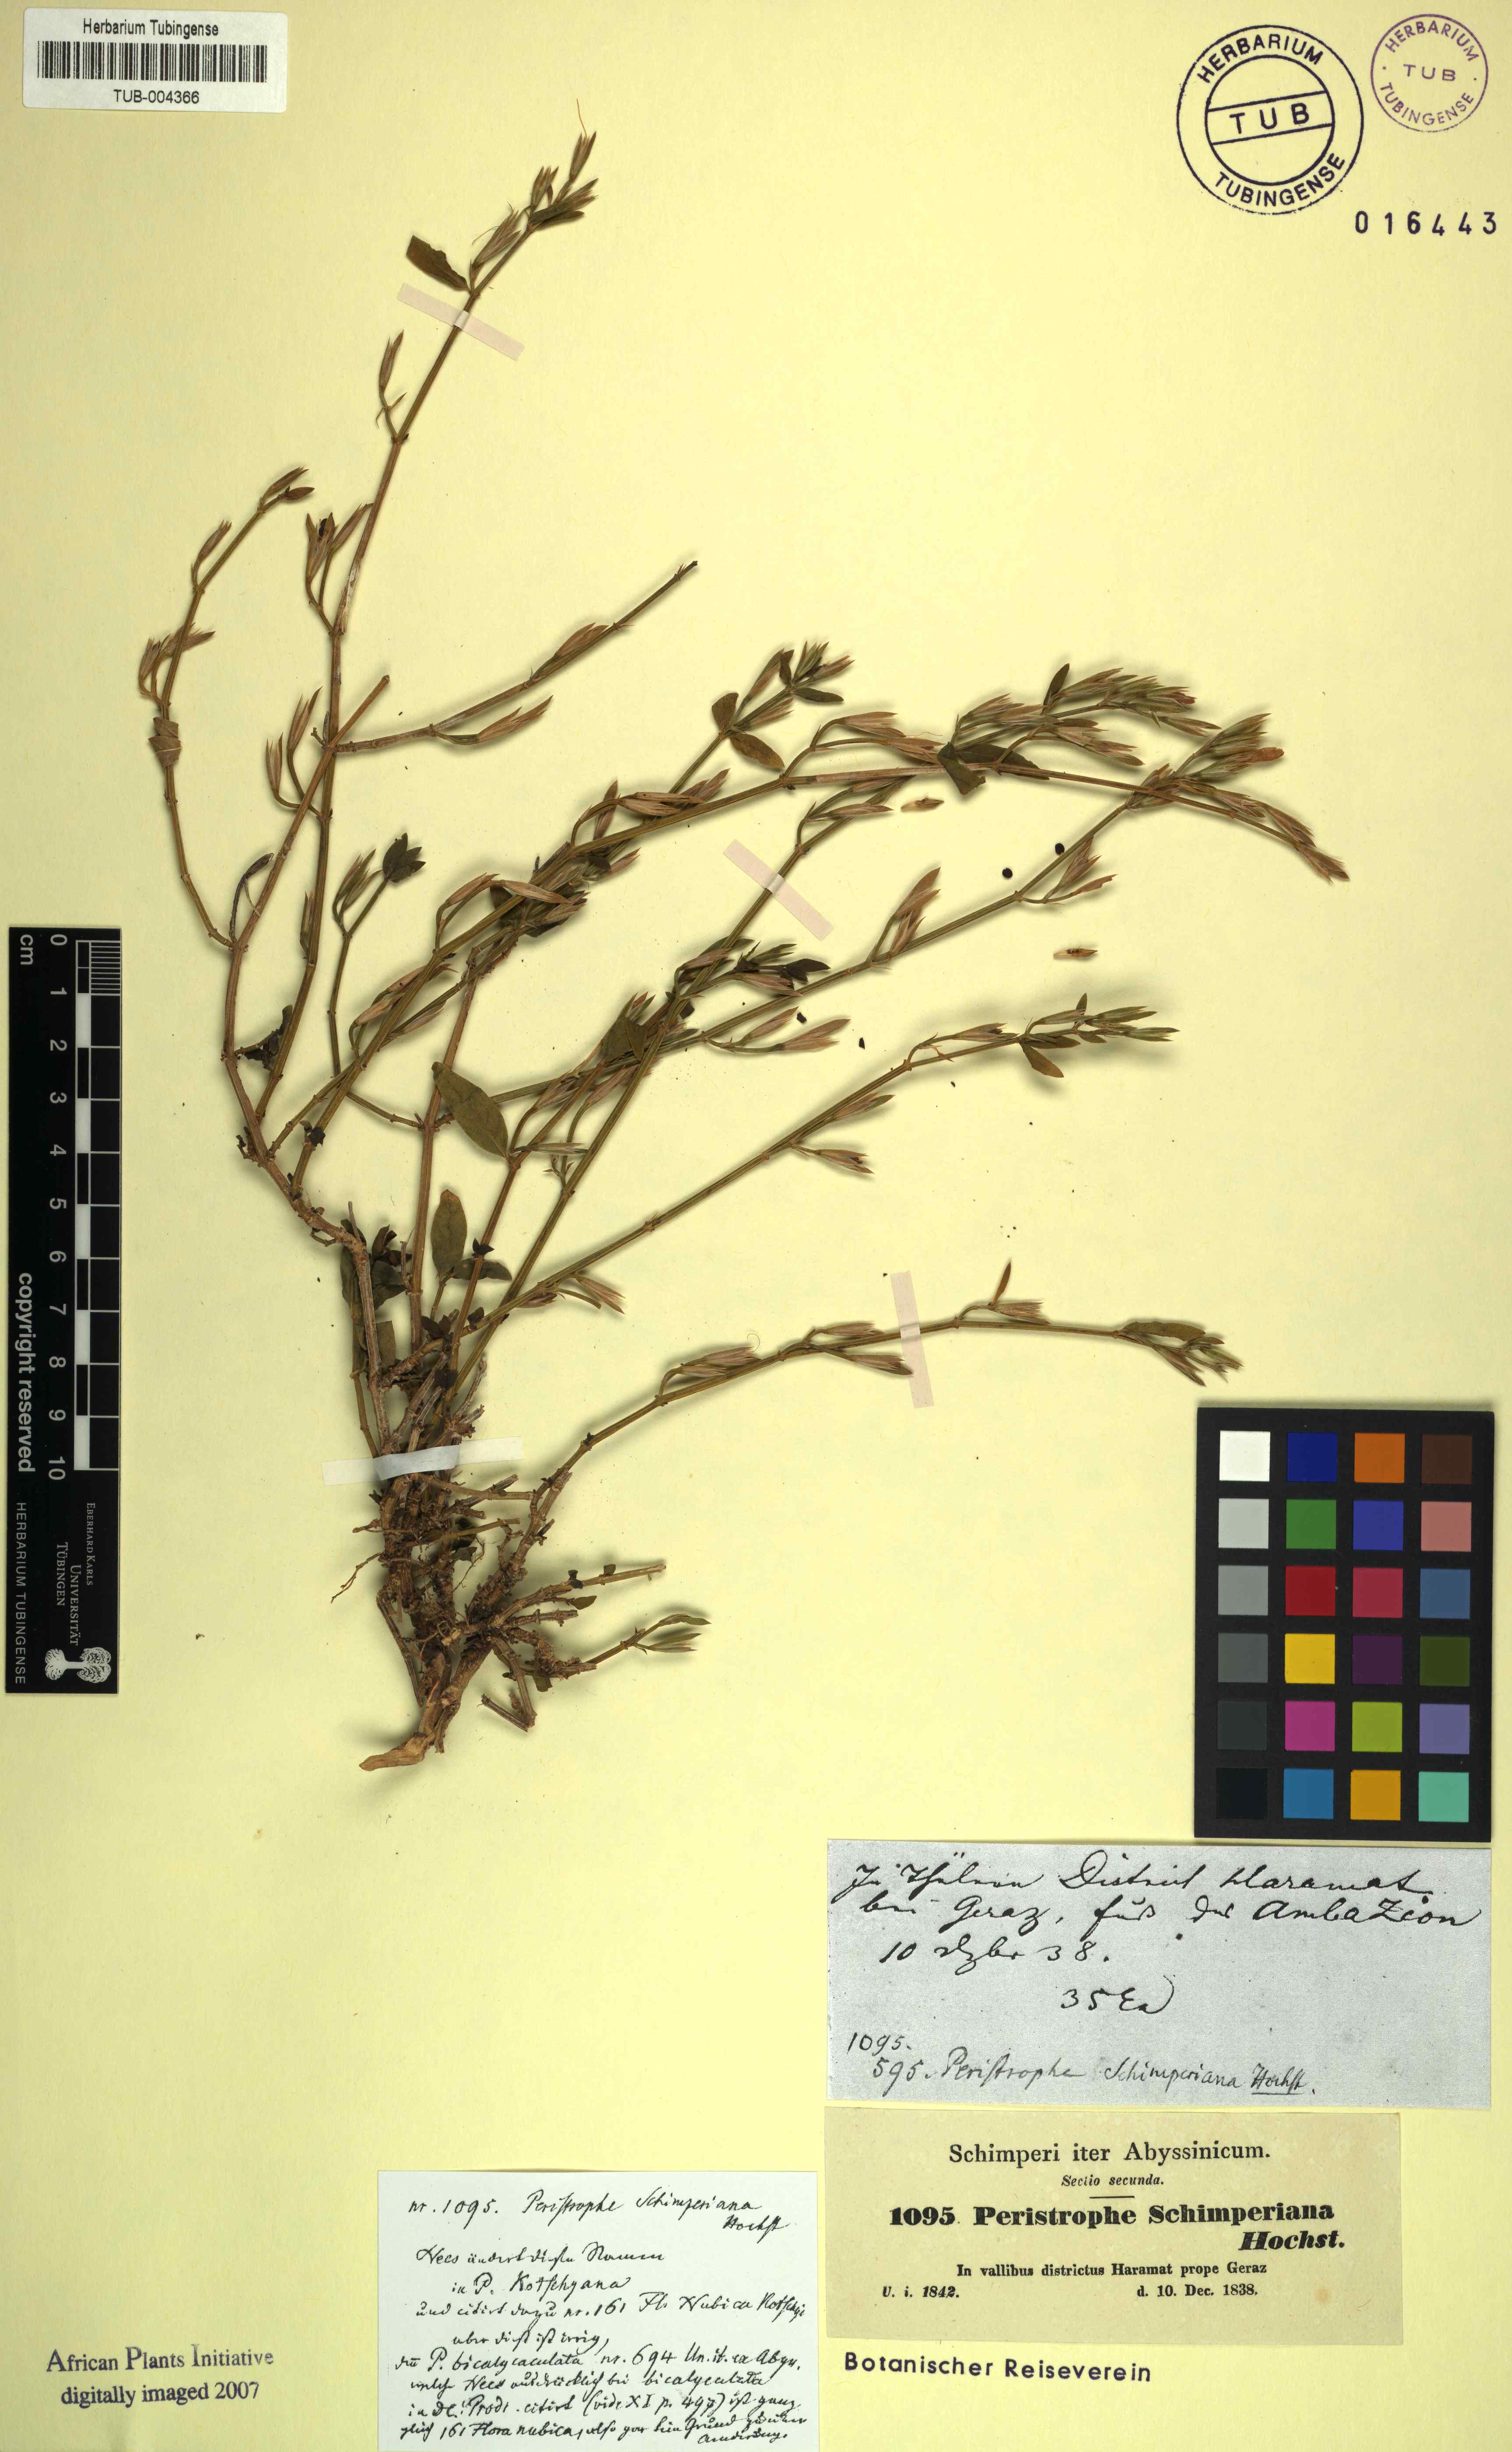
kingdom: Plantae
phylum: Tracheophyta
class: Magnoliopsida
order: Lamiales
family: Acanthaceae
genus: Dicliptera
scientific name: Dicliptera paniculata
